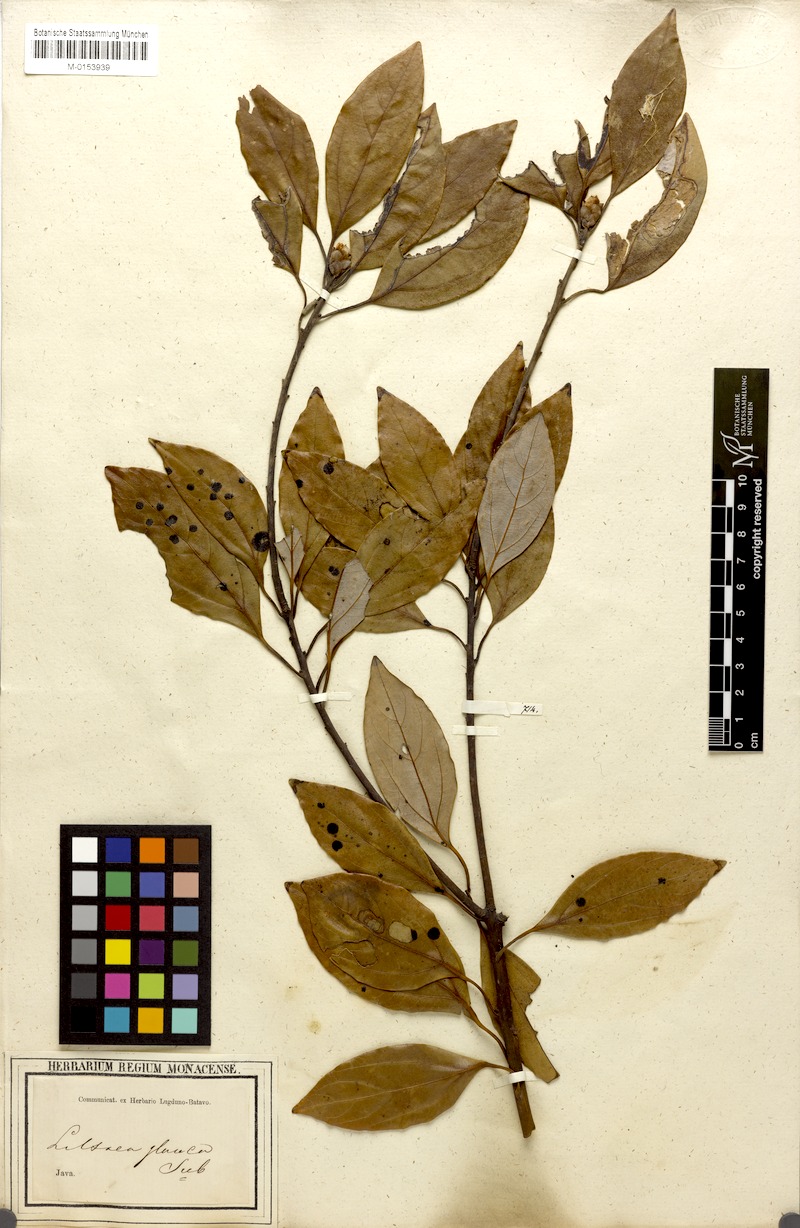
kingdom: Plantae
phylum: Tracheophyta
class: Magnoliopsida
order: Laurales
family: Lauraceae
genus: Neolitsea
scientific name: Neolitsea sericea
